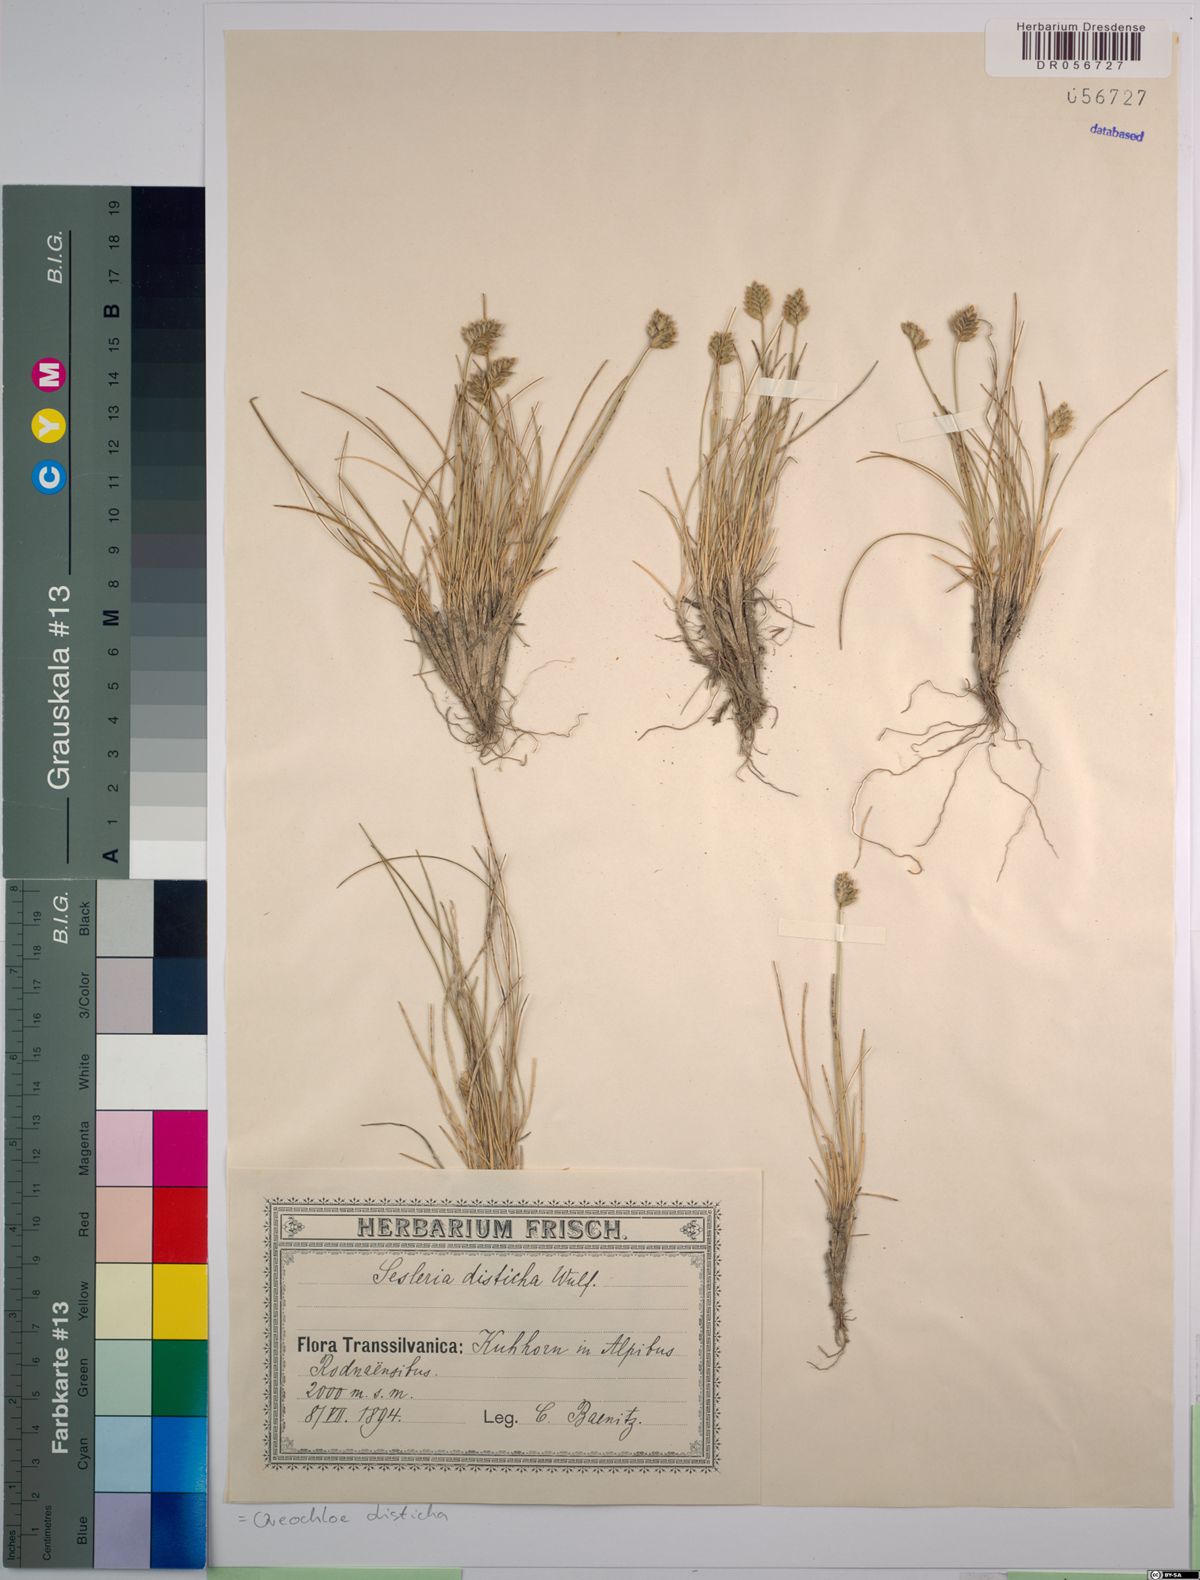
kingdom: Plantae
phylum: Tracheophyta
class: Liliopsida
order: Poales
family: Poaceae
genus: Oreochloa
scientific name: Oreochloa disticha
